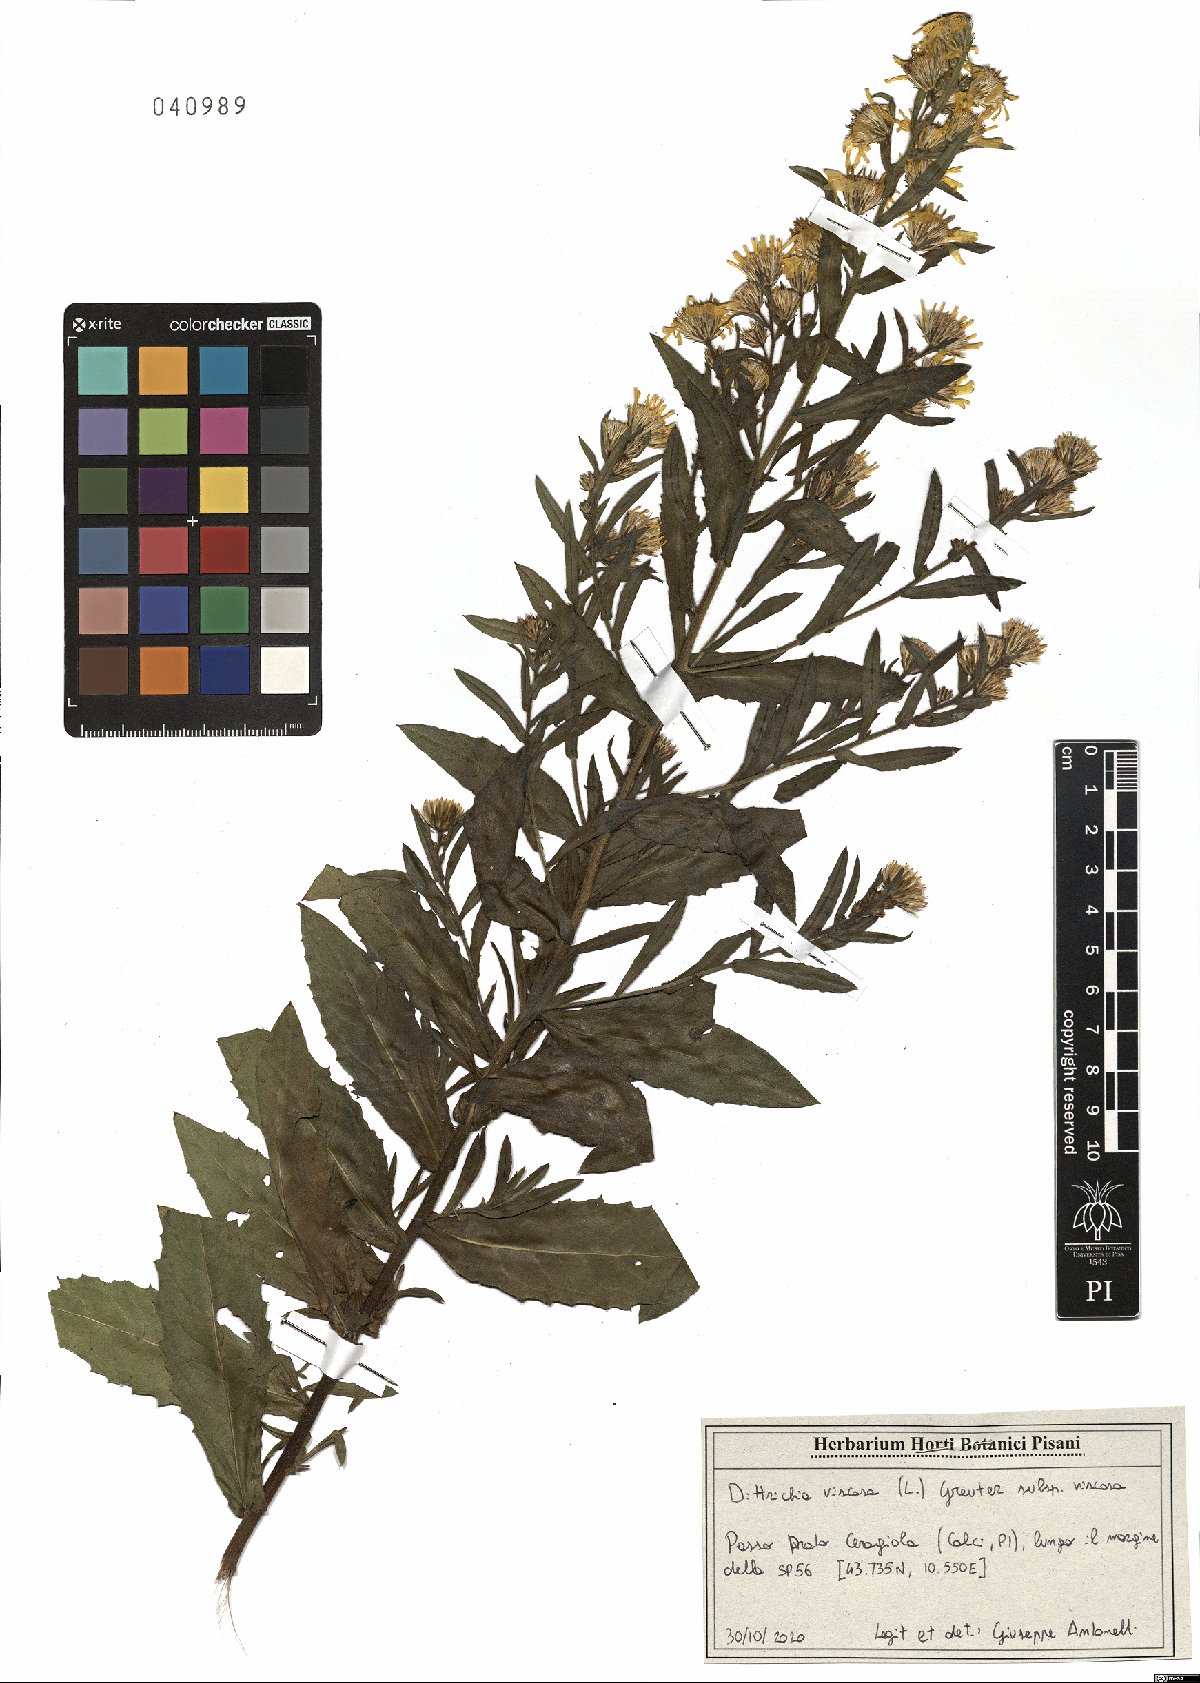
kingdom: Plantae
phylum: Tracheophyta
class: Magnoliopsida
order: Asterales
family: Asteraceae
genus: Dittrichia
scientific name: Dittrichia viscosa
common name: Woody fleabane
